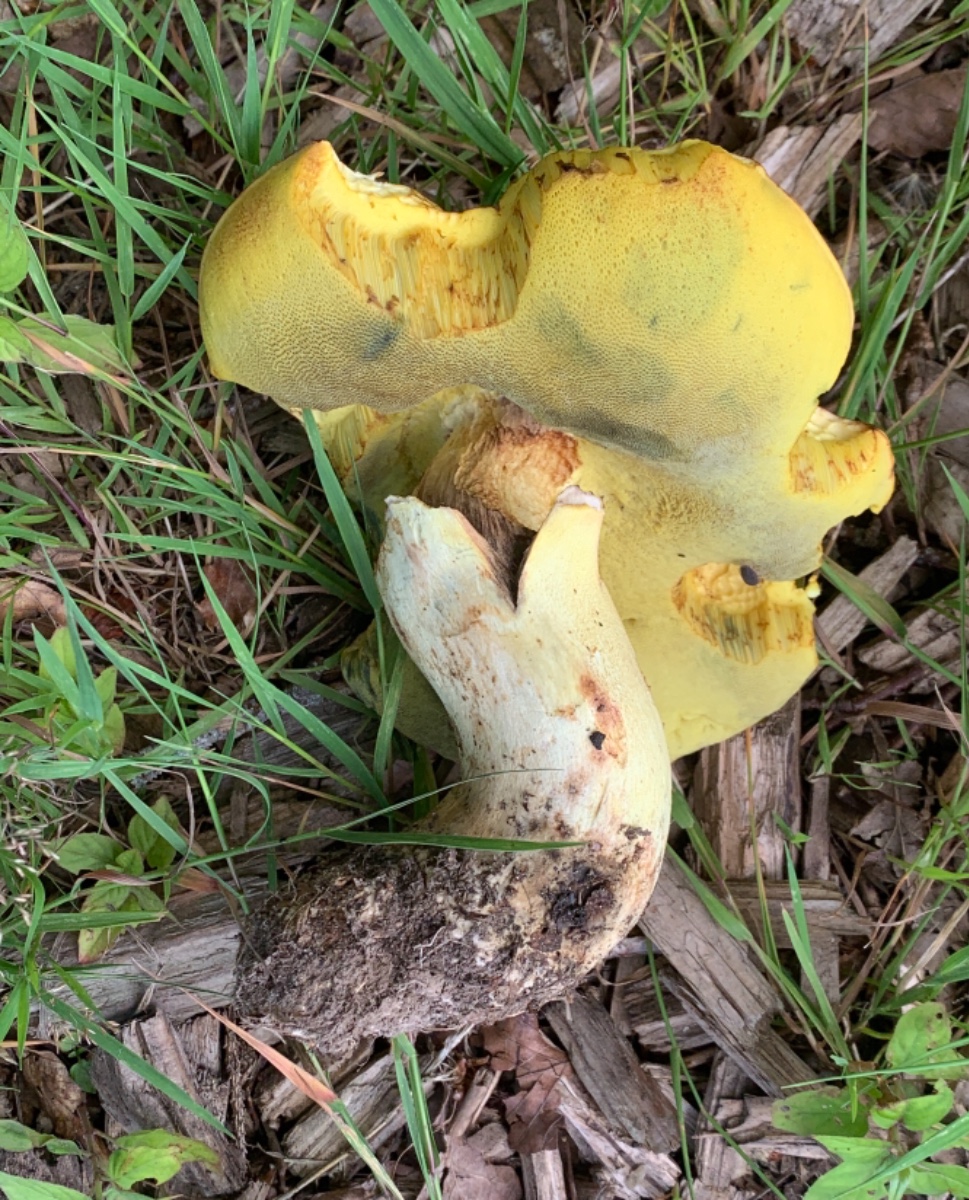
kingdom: Fungi
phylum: Basidiomycota
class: Agaricomycetes
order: Boletales
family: Boletaceae
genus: Butyriboletus
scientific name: Butyriboletus appendiculatus
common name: tenstokket rørhat
